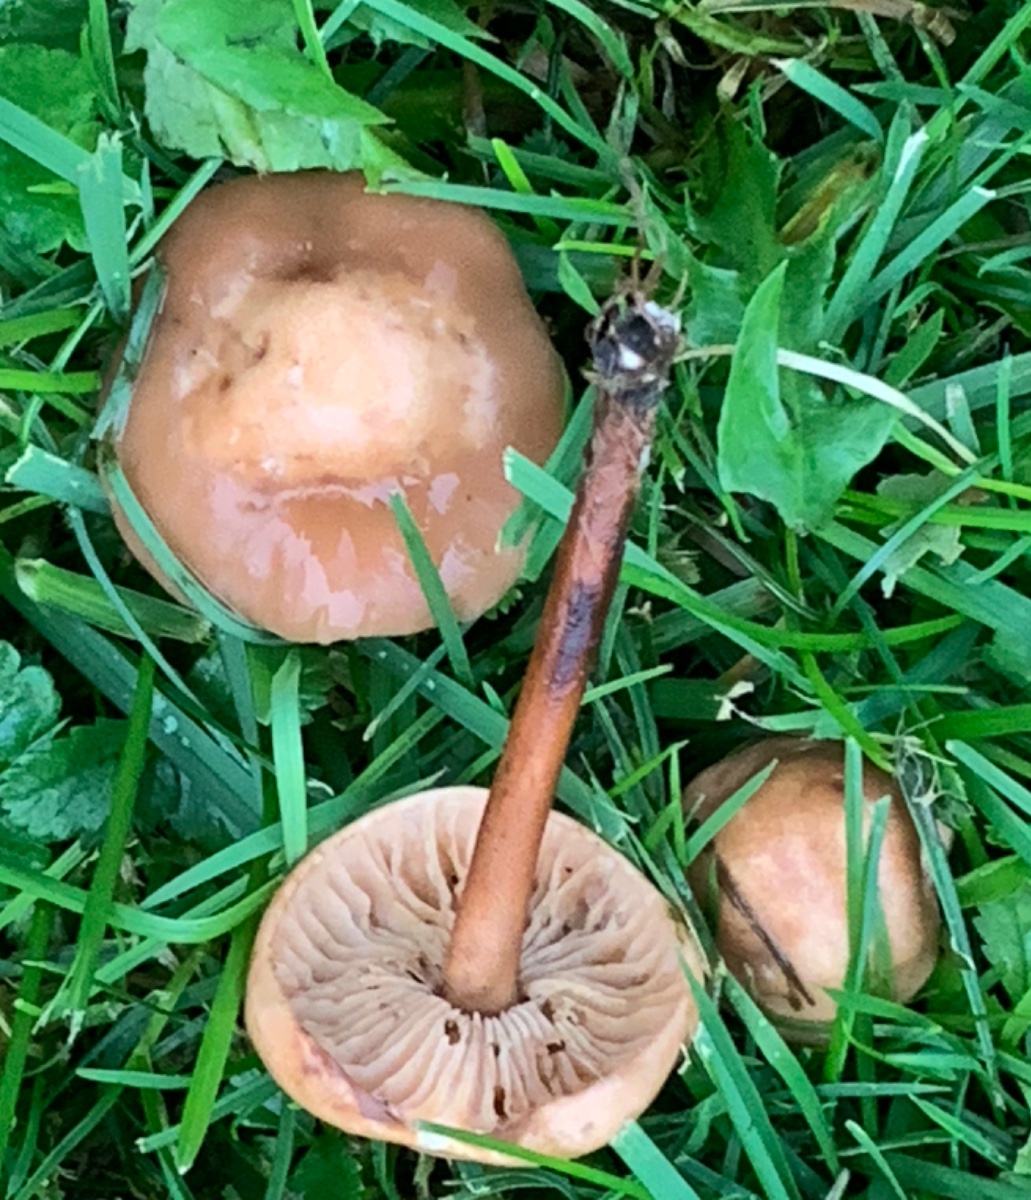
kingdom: Fungi
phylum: Basidiomycota
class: Agaricomycetes
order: Agaricales
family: Marasmiaceae
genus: Marasmius
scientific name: Marasmius oreades
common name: elledans-bruskhat
